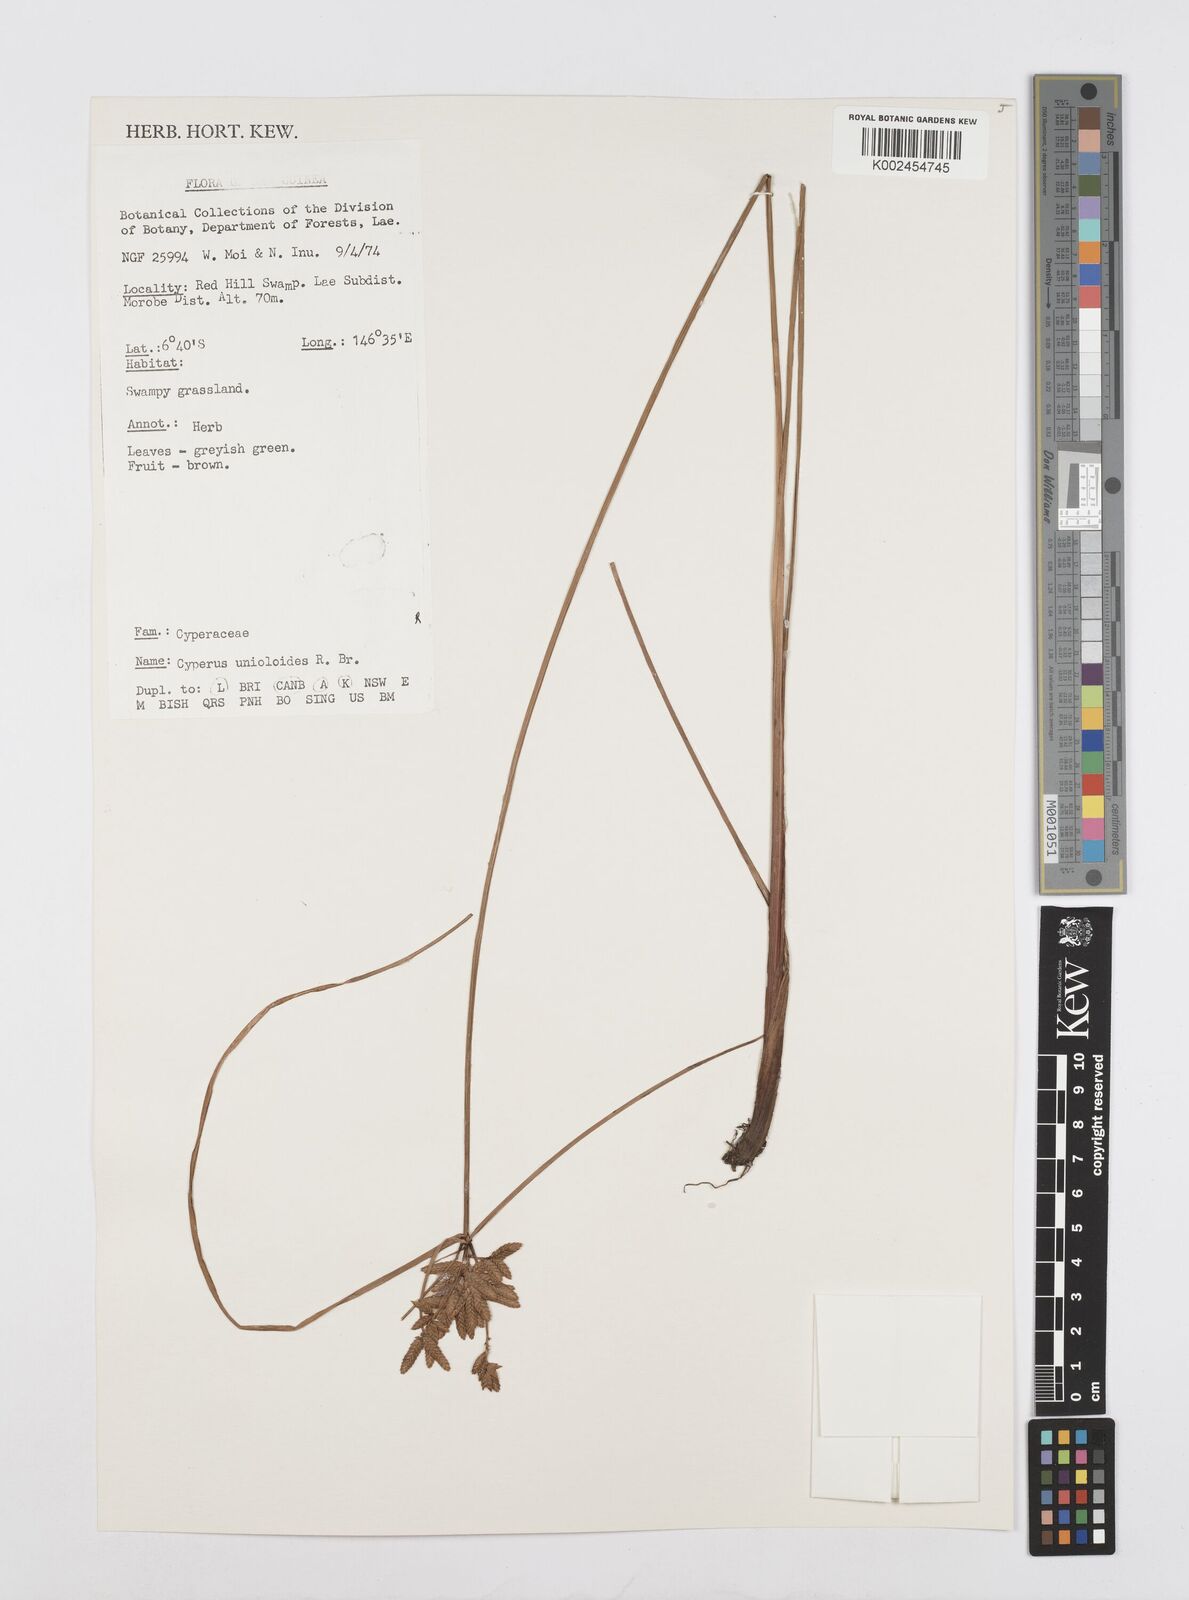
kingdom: Plantae
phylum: Tracheophyta
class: Liliopsida
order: Poales
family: Cyperaceae
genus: Cyperus
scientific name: Cyperus unioloides
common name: Uniola flatsedge
